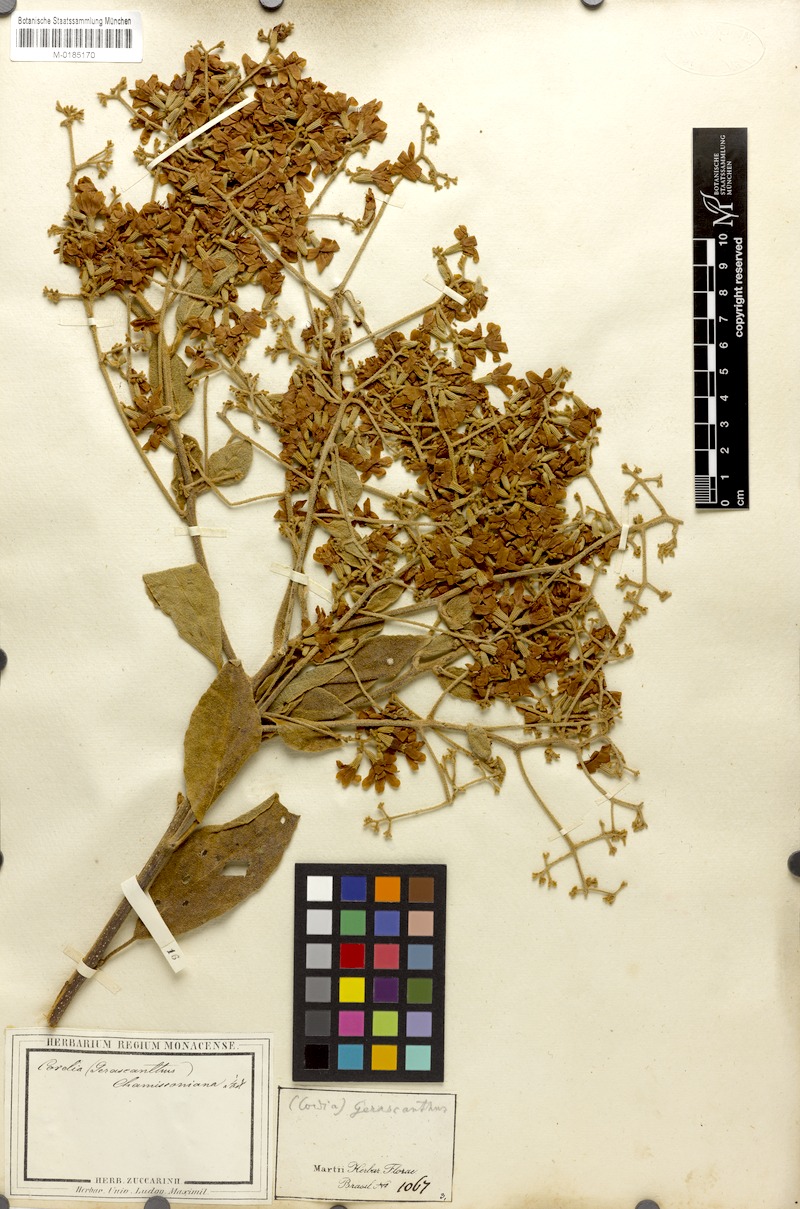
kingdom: Plantae
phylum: Tracheophyta
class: Magnoliopsida
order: Boraginales
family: Cordiaceae
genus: Cordia
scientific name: Cordia trichotoma
